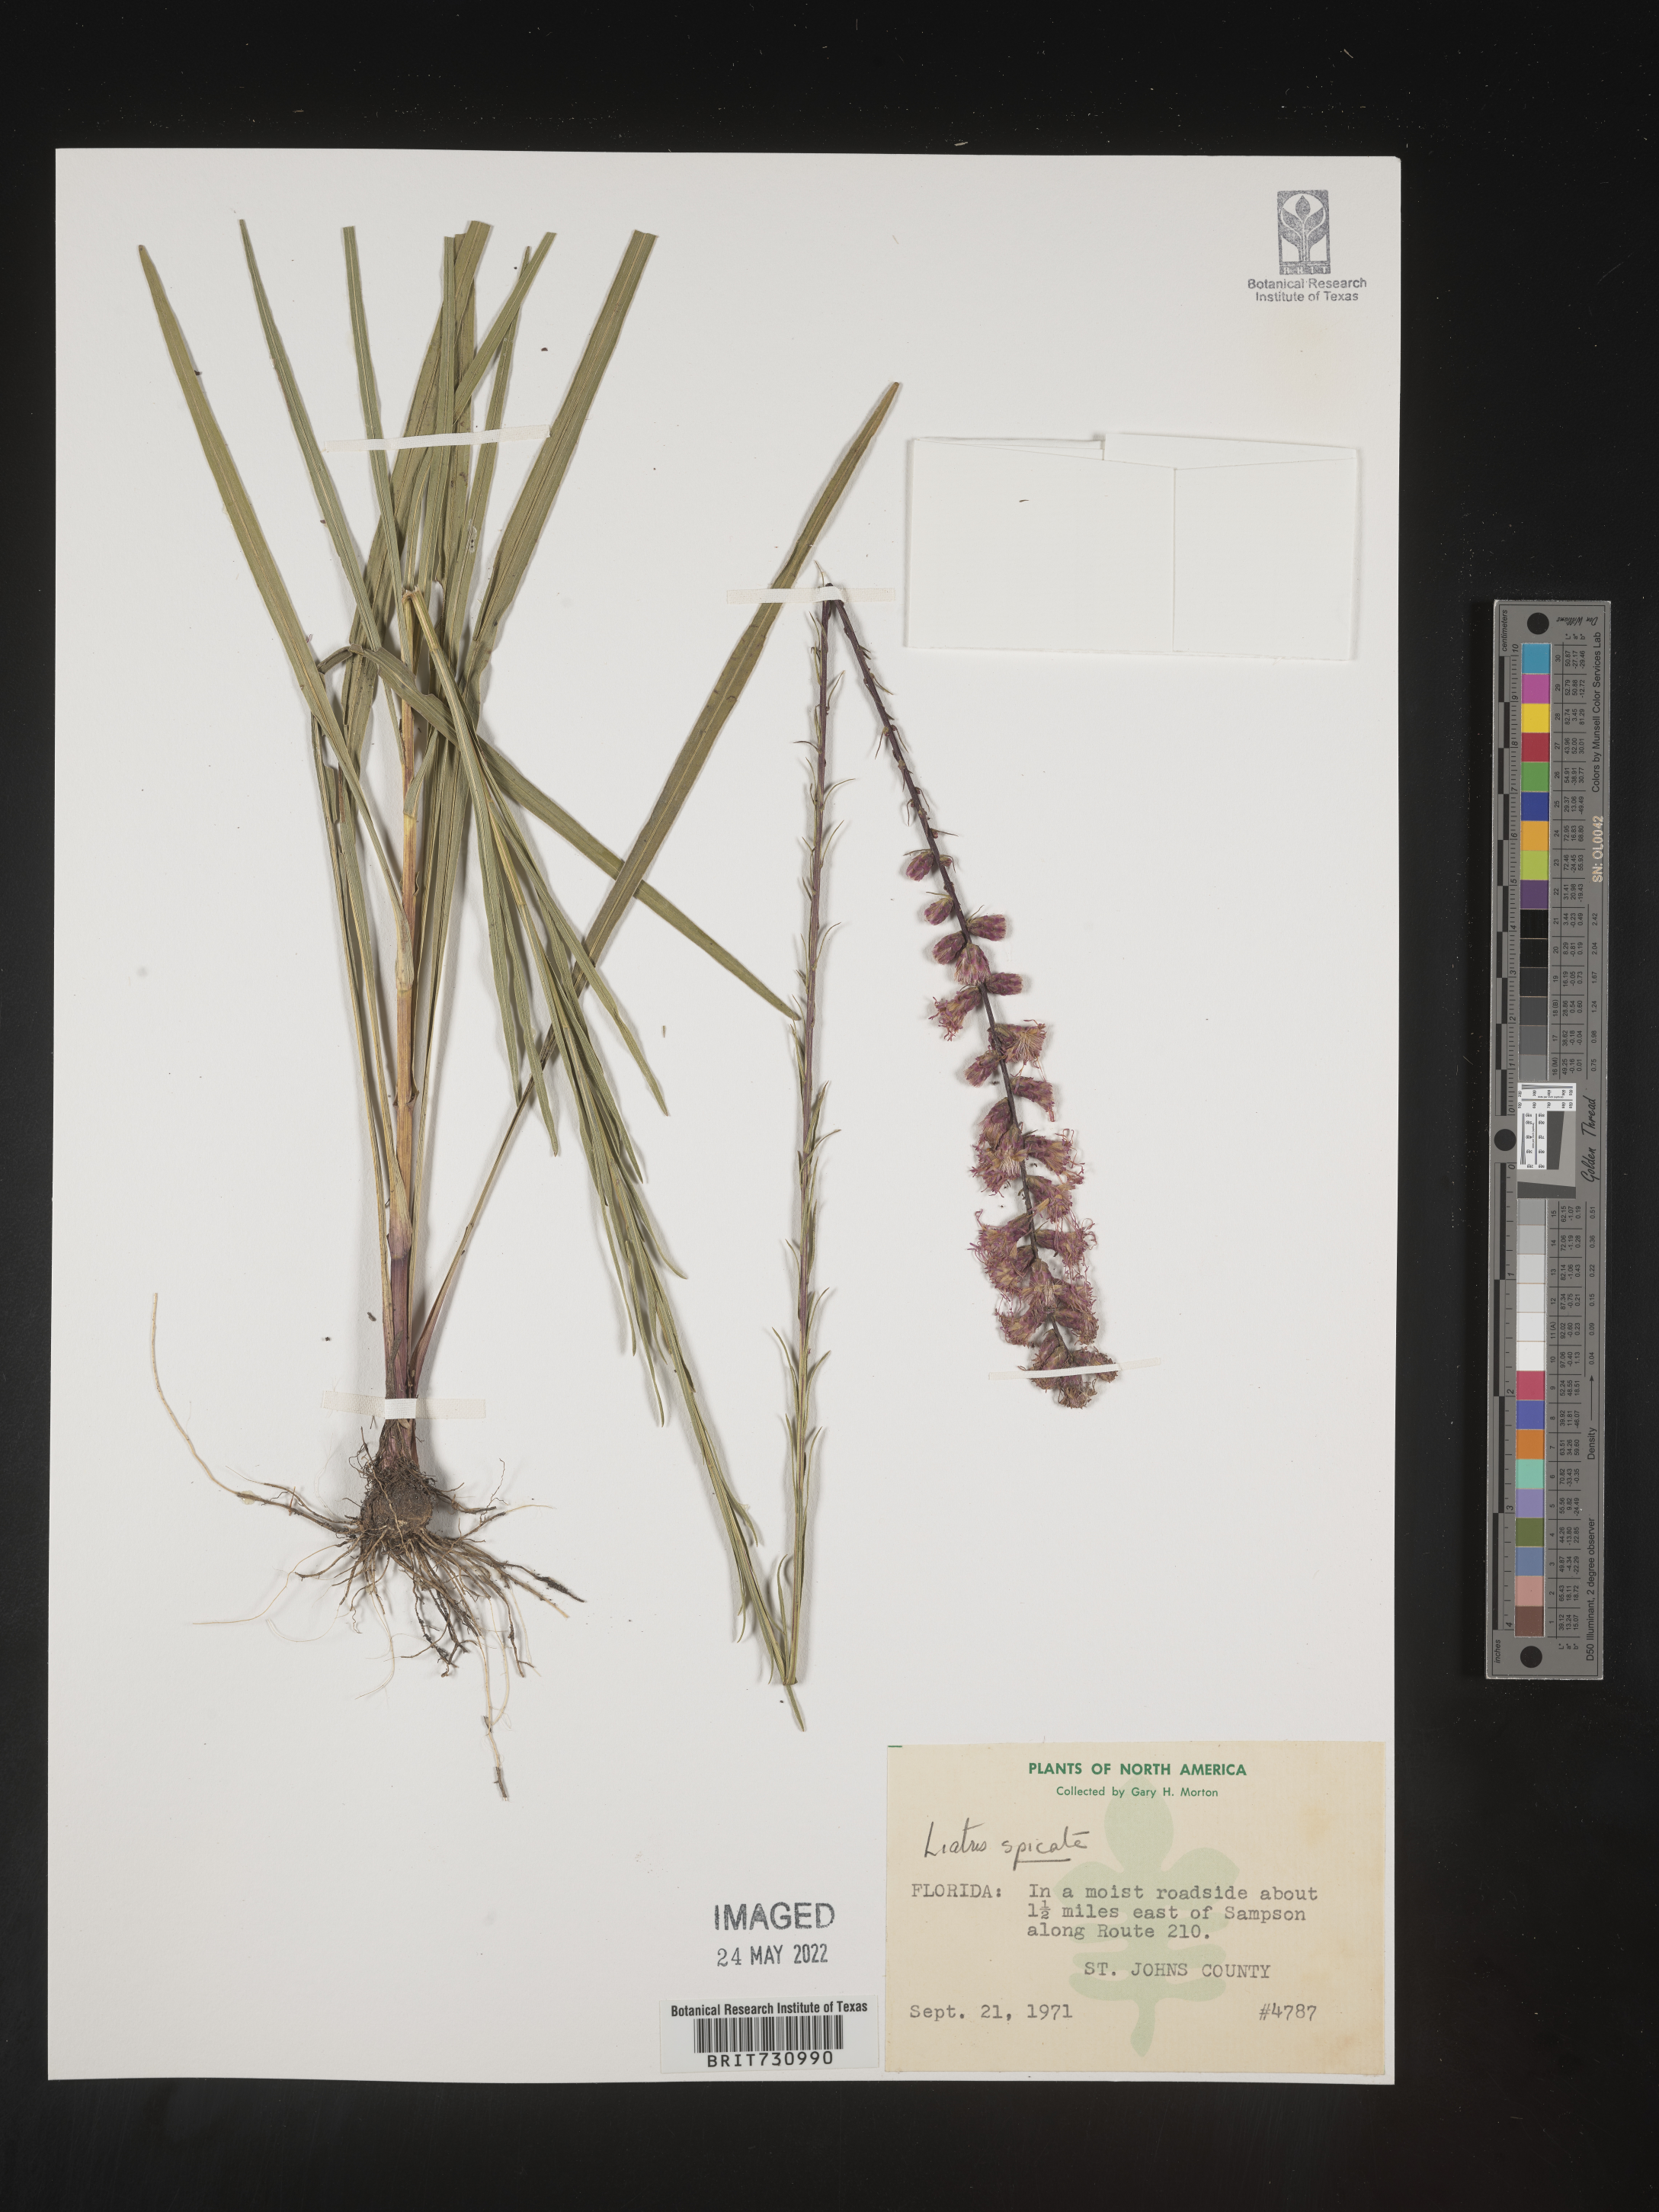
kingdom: Plantae
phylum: Tracheophyta
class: Magnoliopsida
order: Asterales
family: Asteraceae
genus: Liatris
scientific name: Liatris spicata
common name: Florist gayfeather
